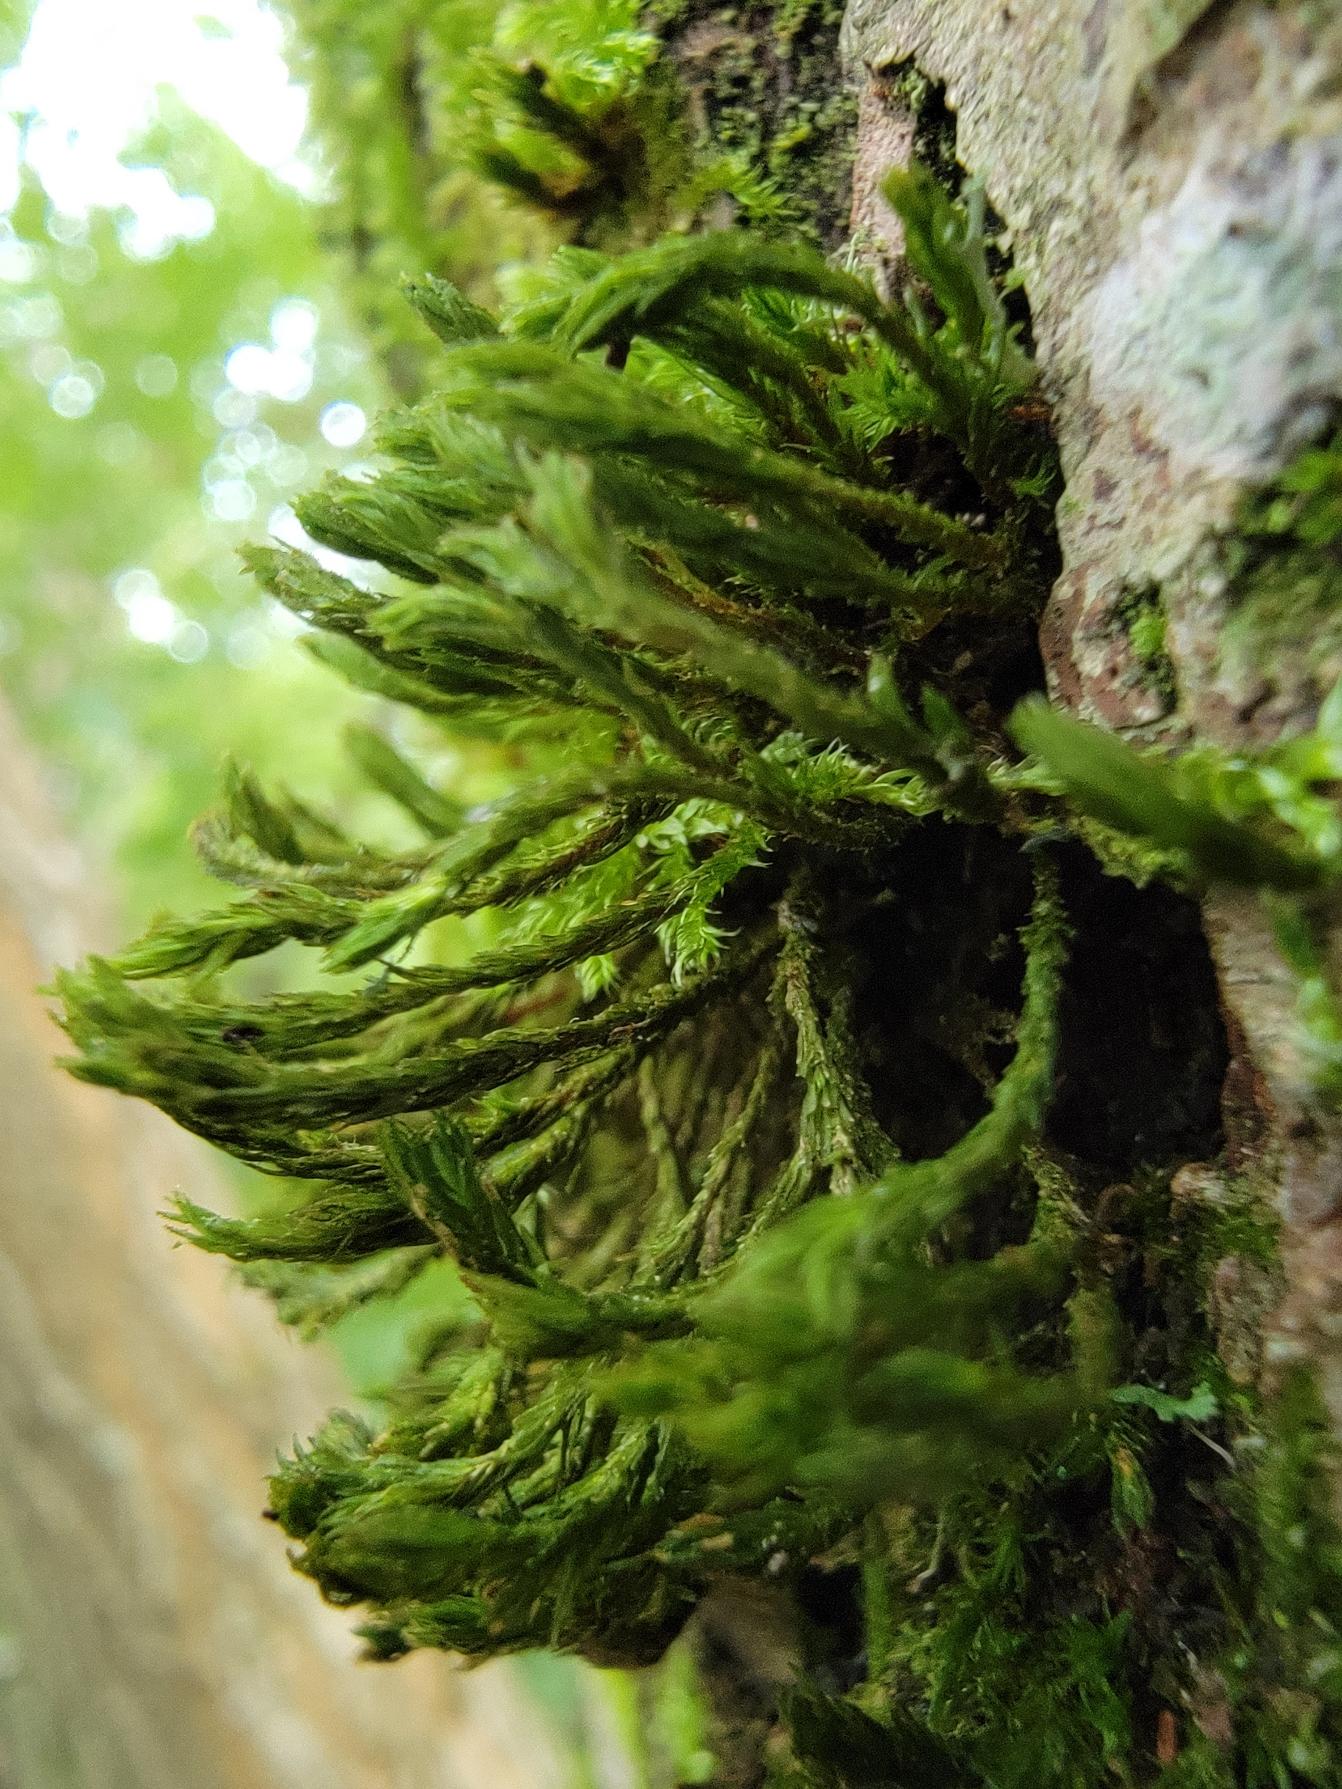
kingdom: Plantae
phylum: Bryophyta
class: Bryopsida
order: Orthotrichales
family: Orthotrichaceae
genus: Pulvigera
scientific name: Pulvigera lyellii
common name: Stor furehætte
